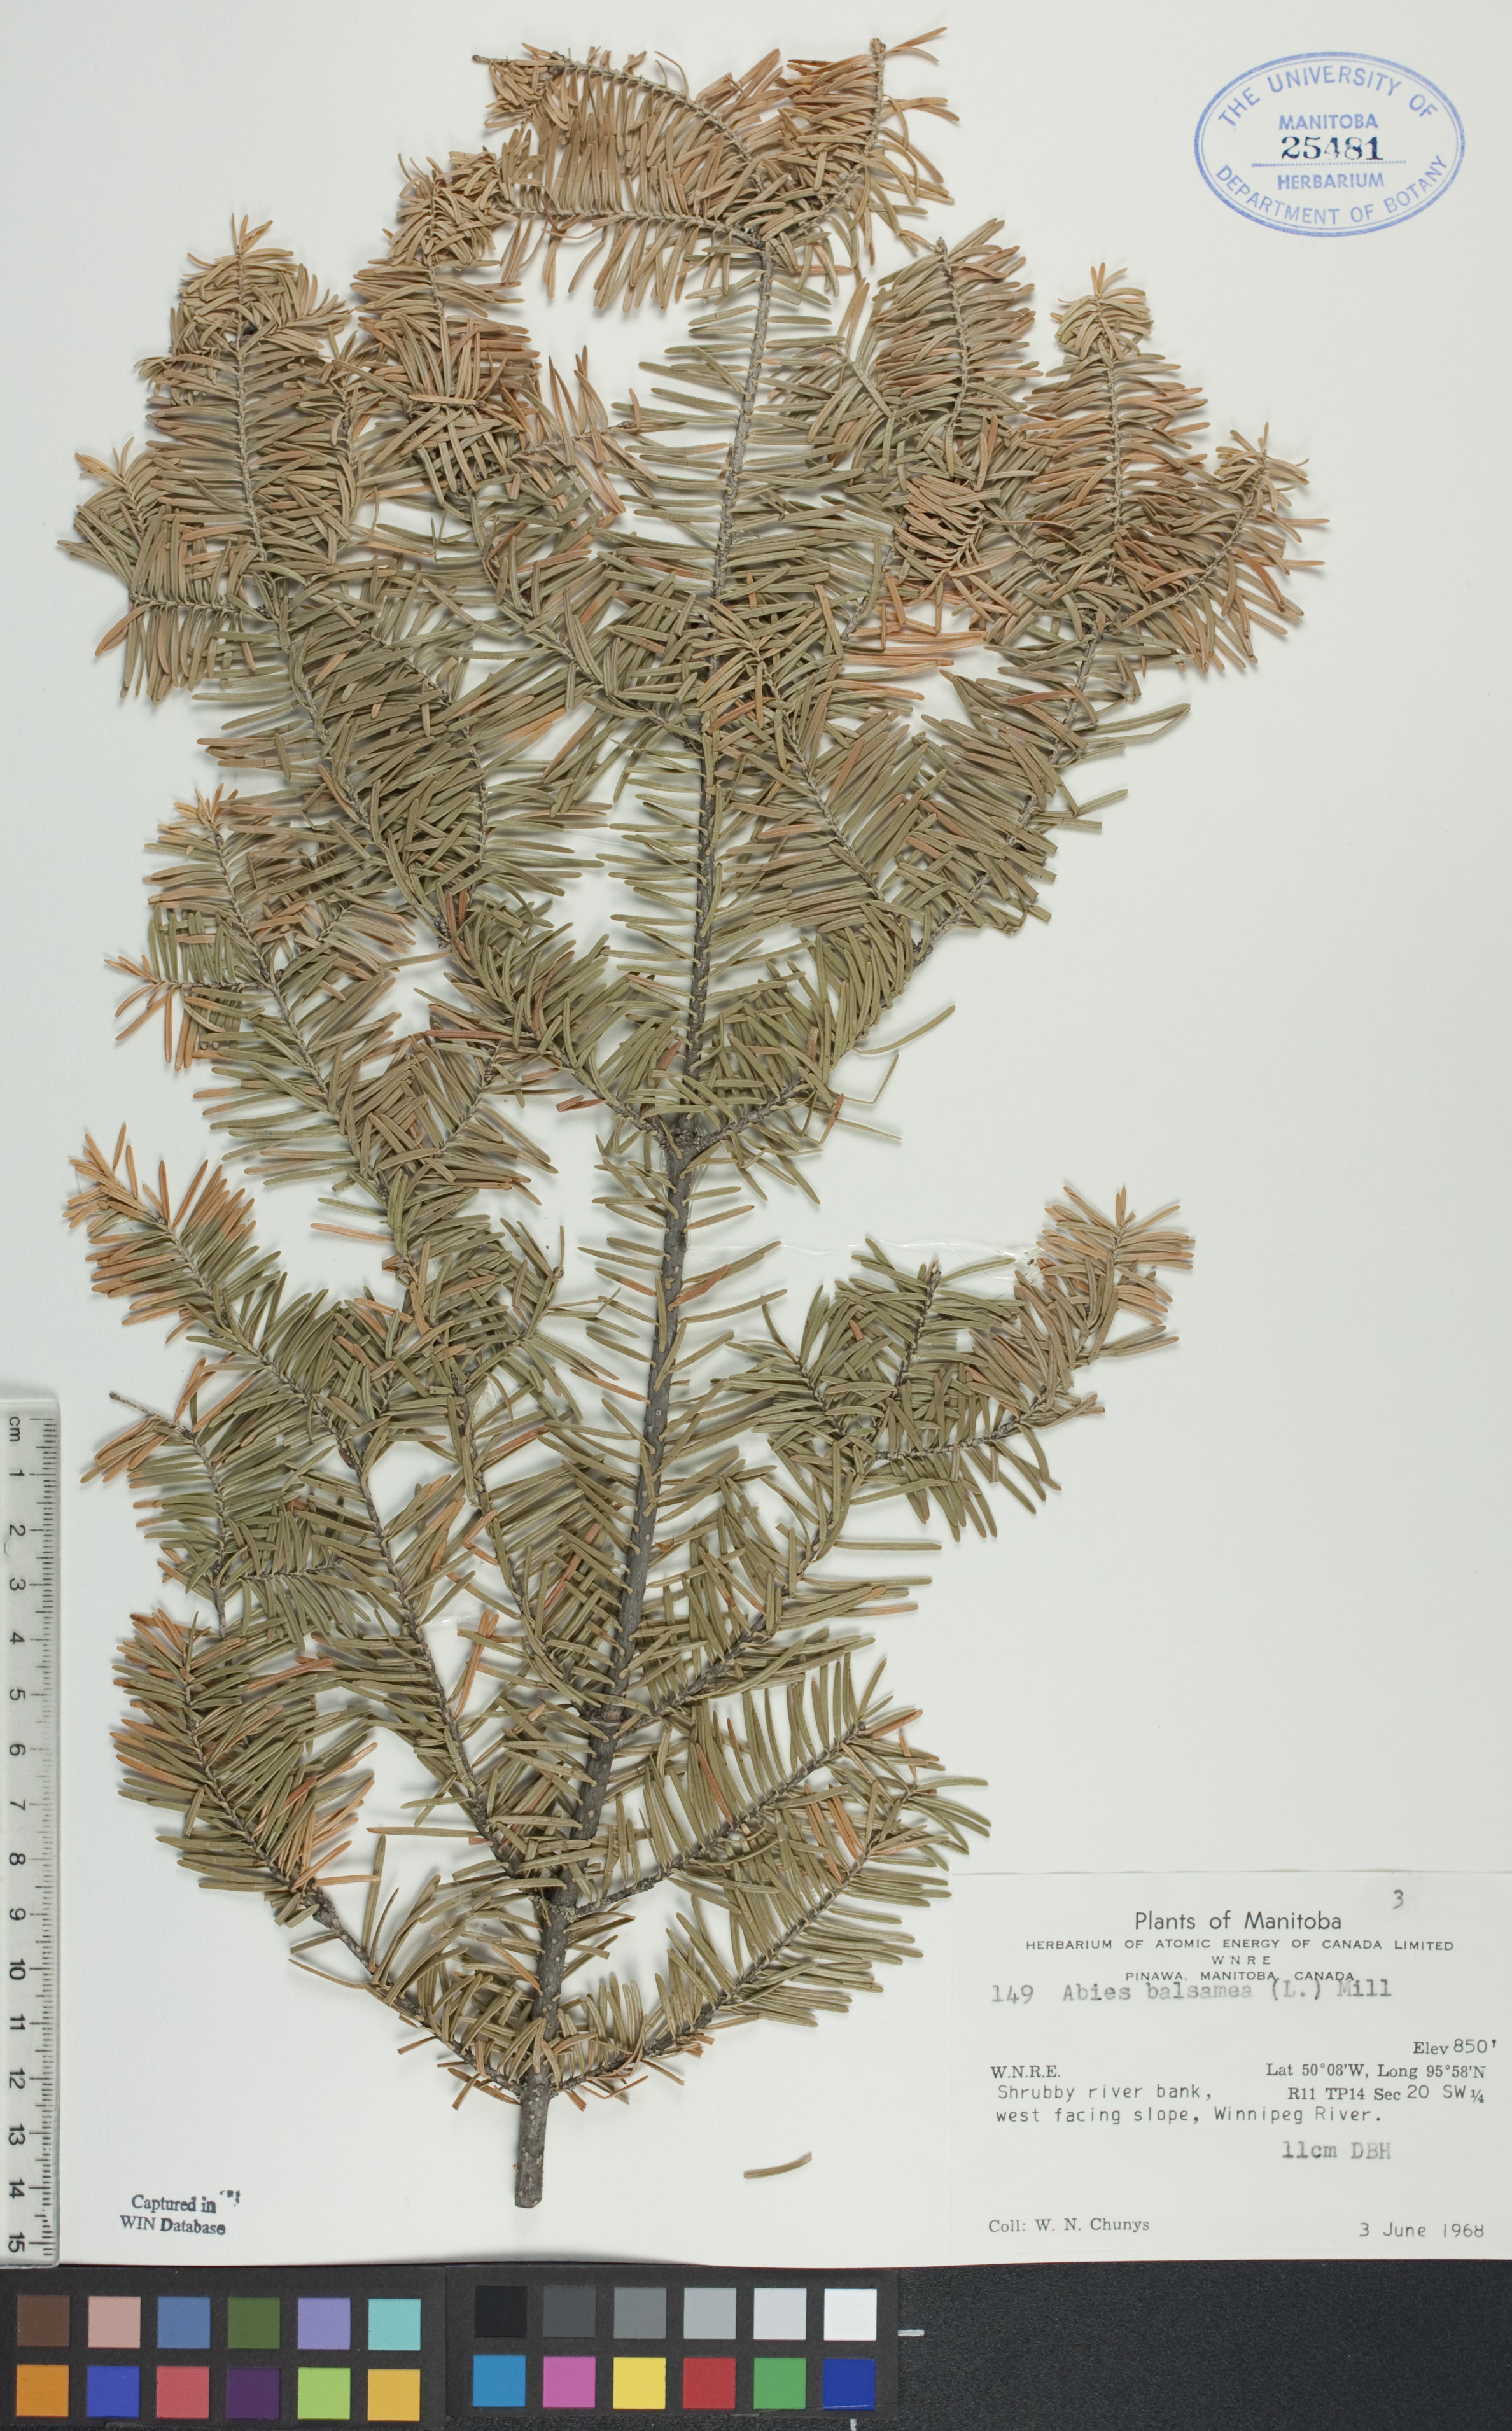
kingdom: Plantae
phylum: Tracheophyta
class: Pinopsida
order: Pinales
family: Pinaceae
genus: Abies
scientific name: Abies balsamea
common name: Balsam fir
